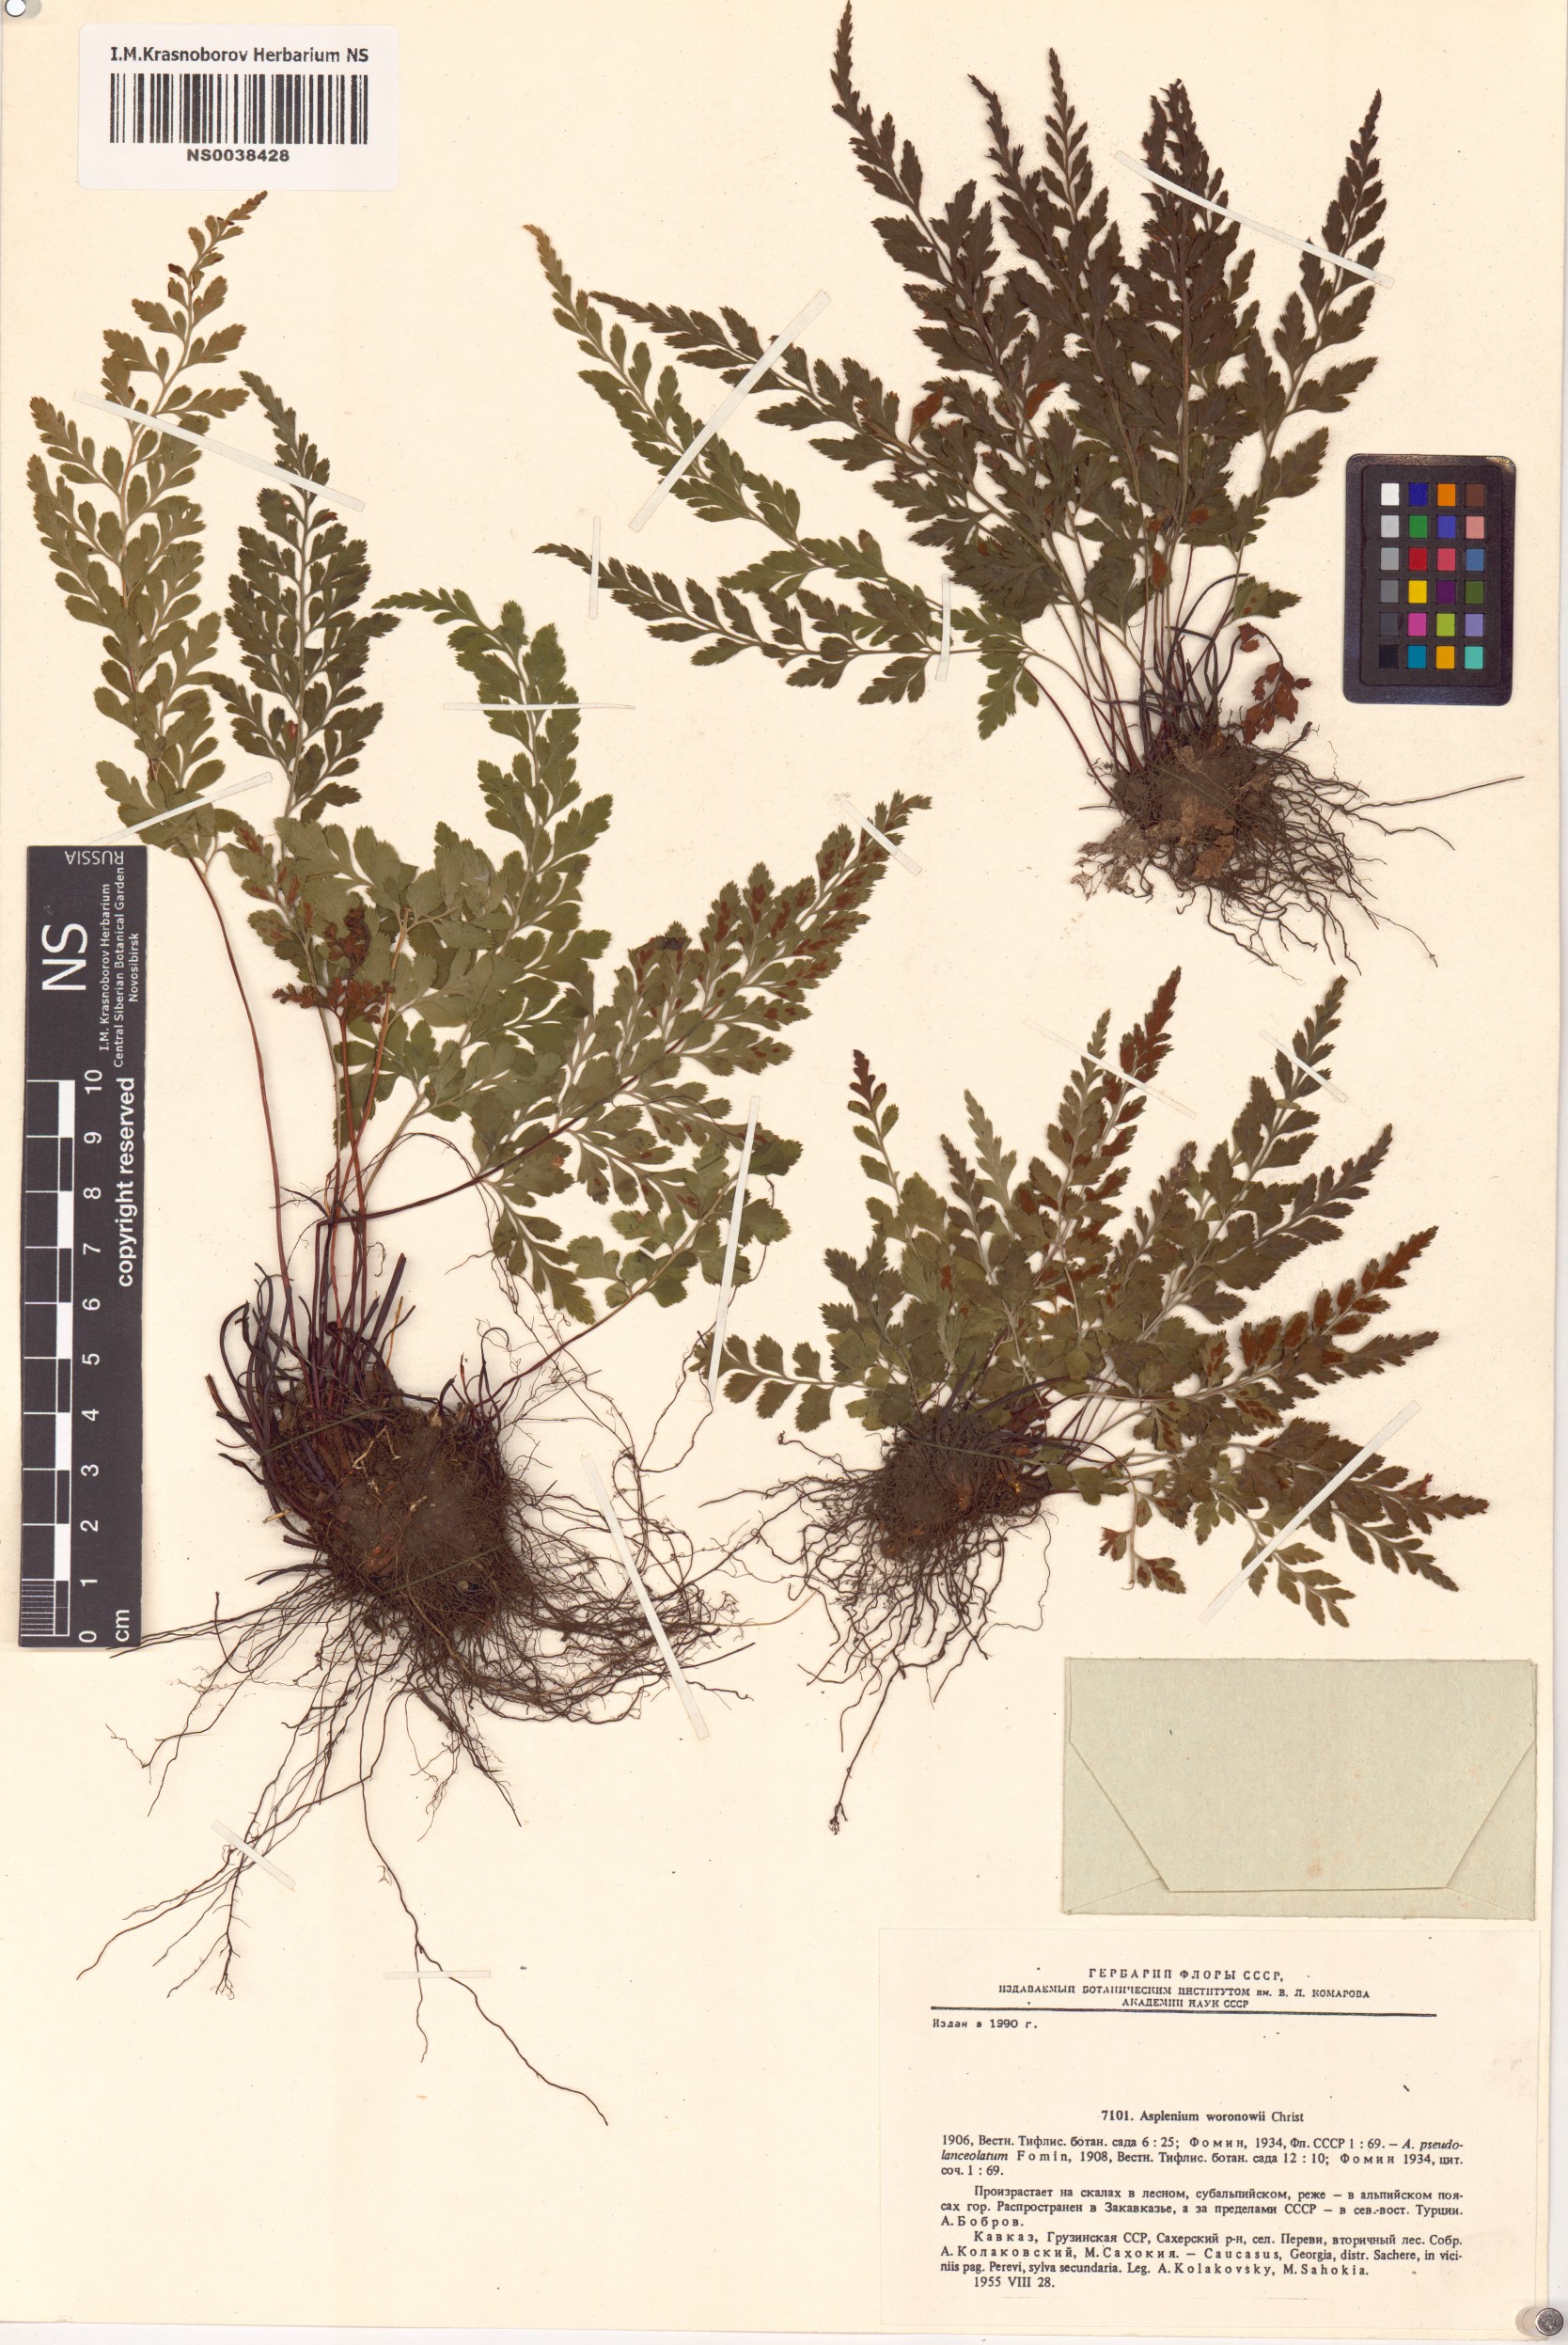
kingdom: Plantae
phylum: Tracheophyta
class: Polypodiopsida
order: Polypodiales
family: Aspleniaceae
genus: Asplenium
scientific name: Asplenium adiantum-nigrum
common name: Black spleenwort
